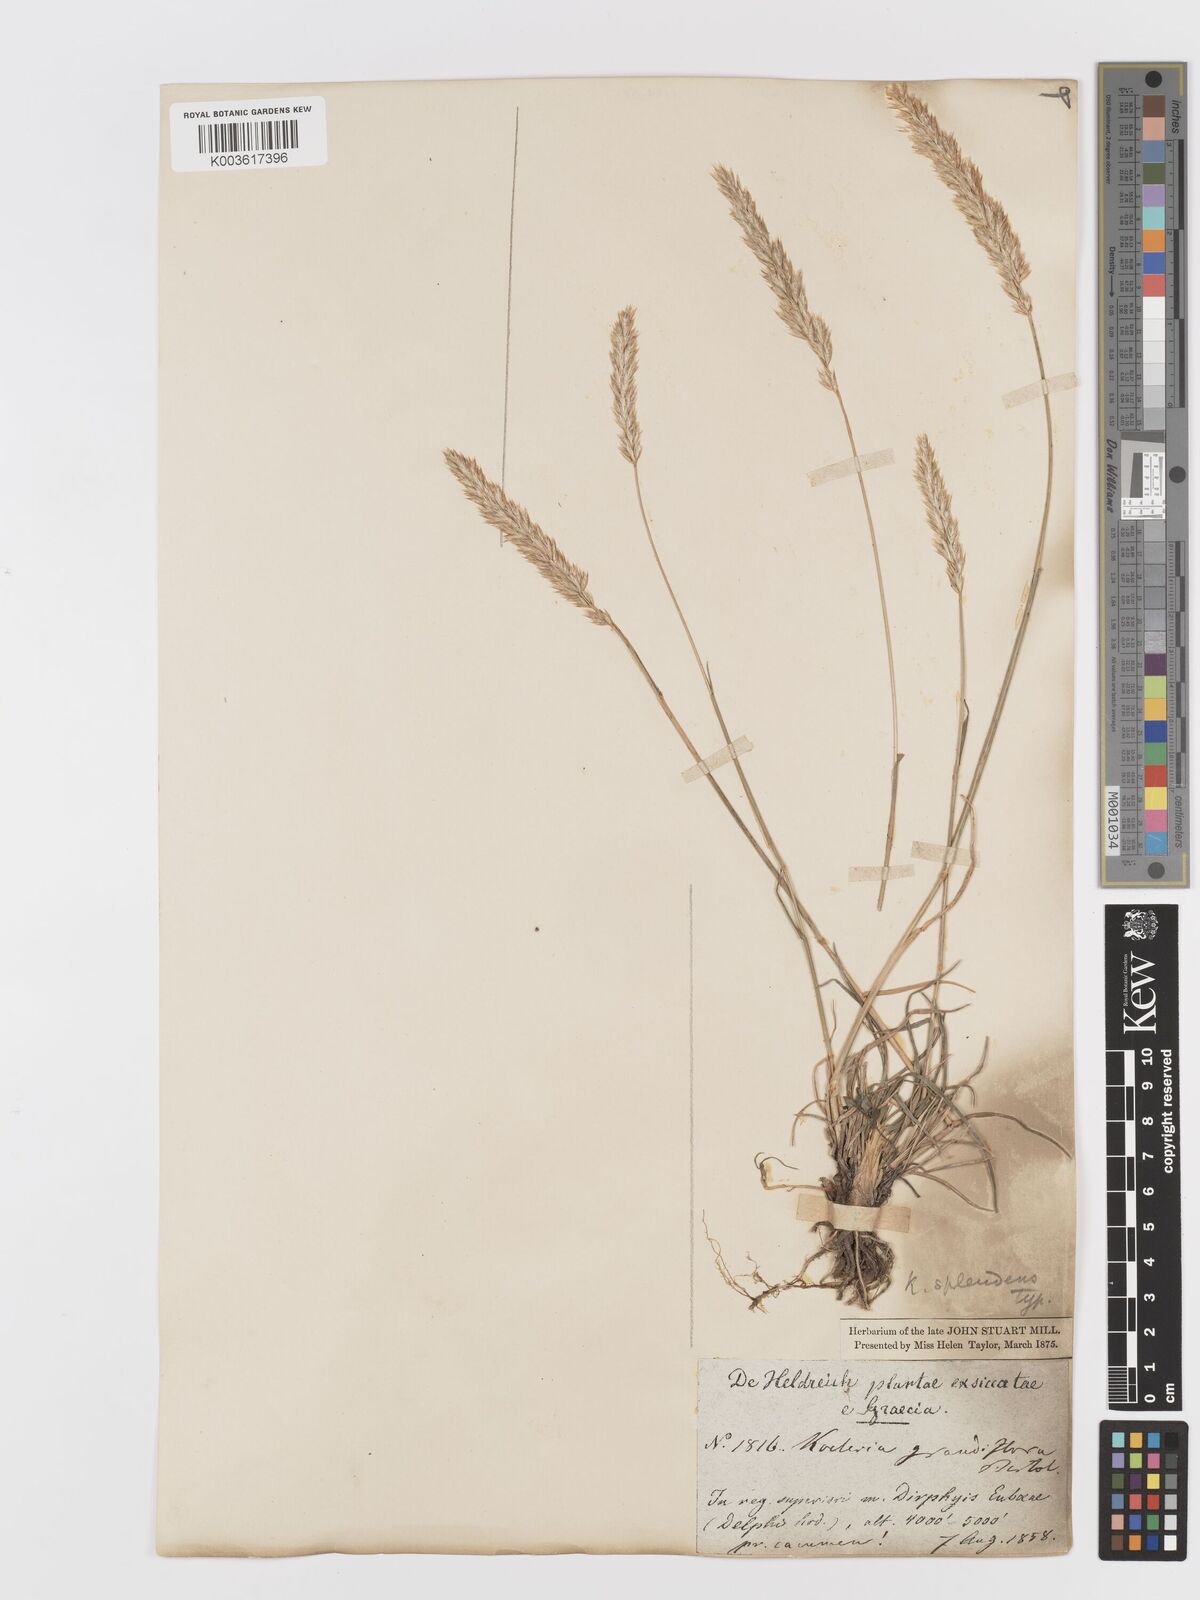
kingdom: Plantae
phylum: Tracheophyta
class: Liliopsida
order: Poales
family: Poaceae
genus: Koeleria
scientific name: Koeleria splendens
